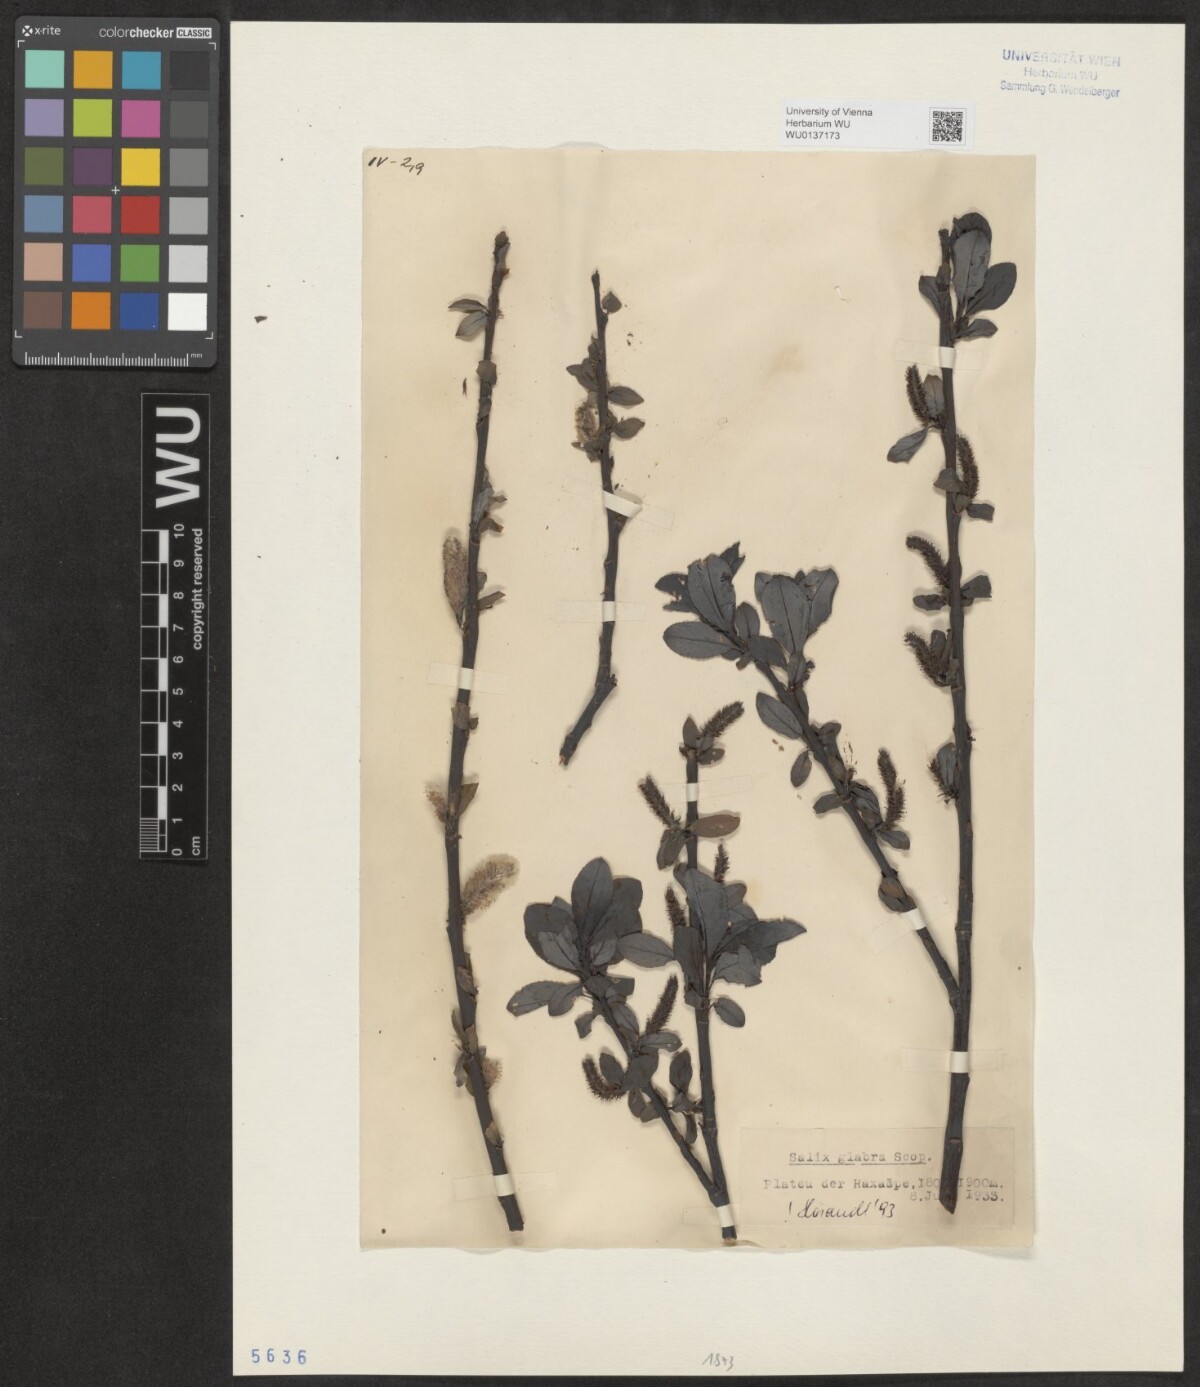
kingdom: Plantae
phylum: Tracheophyta
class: Magnoliopsida
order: Malpighiales
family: Salicaceae
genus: Salix
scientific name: Salix glabra
